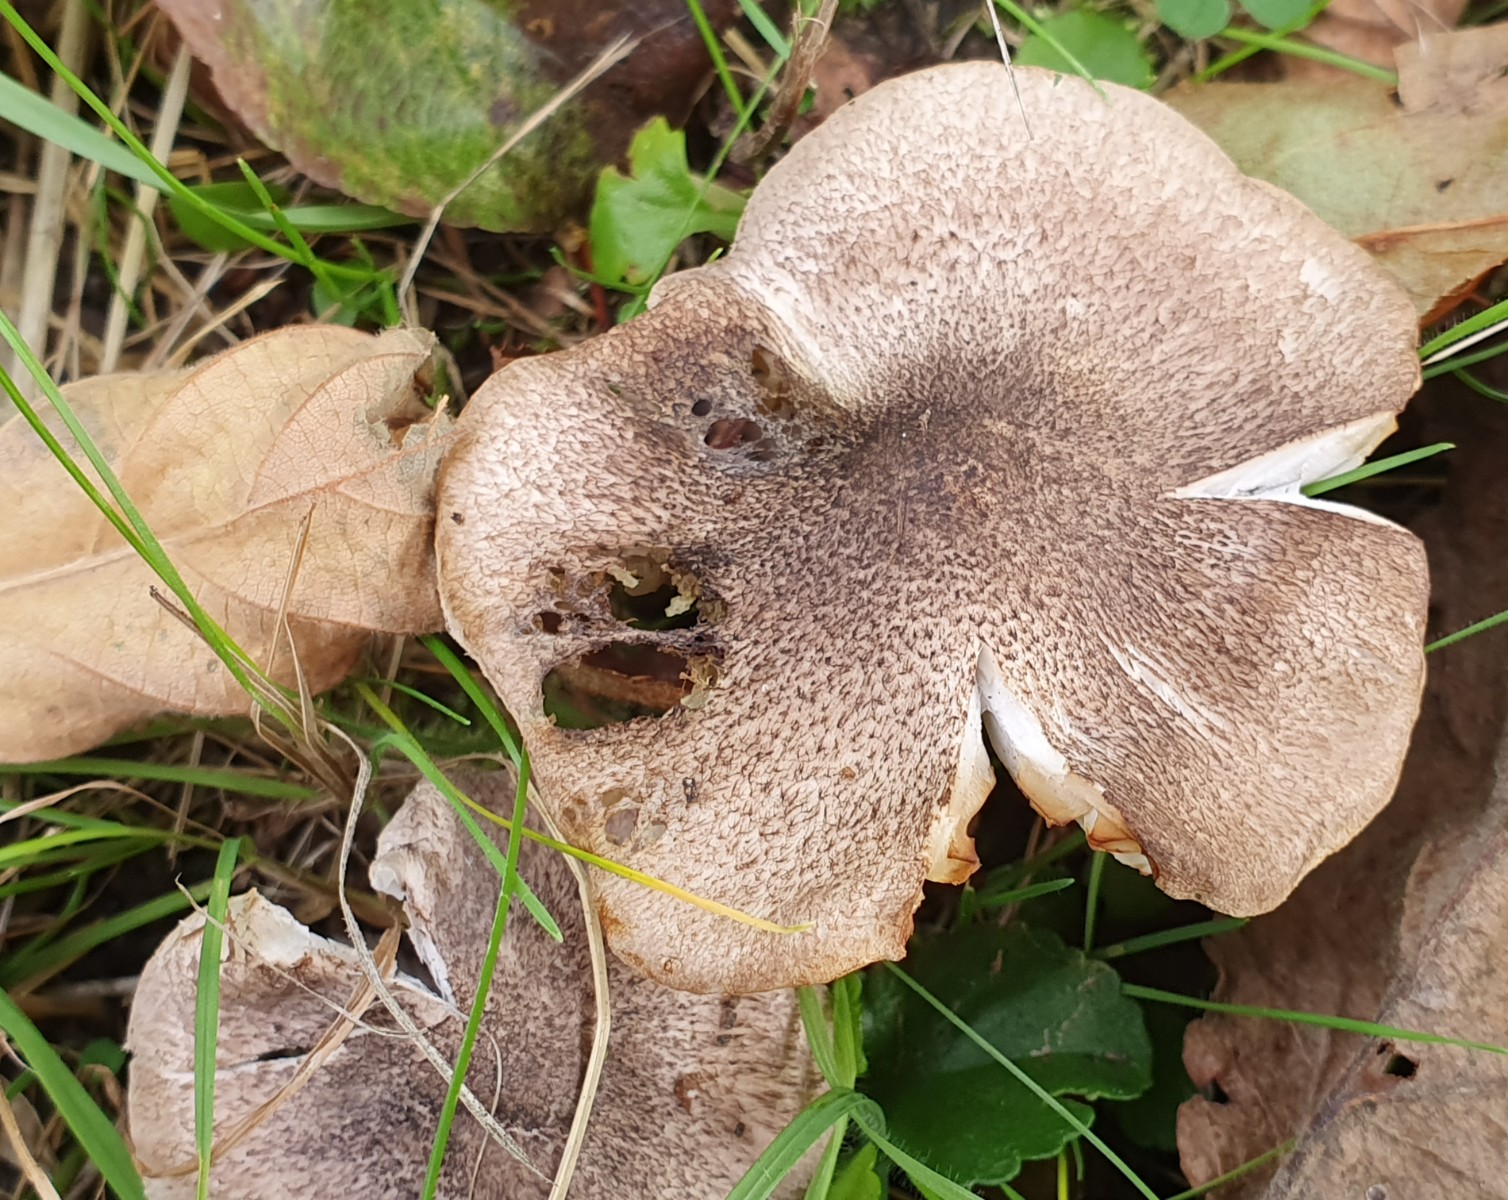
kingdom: Fungi
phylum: Basidiomycota
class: Agaricomycetes
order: Agaricales
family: Tricholomataceae
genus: Tricholoma
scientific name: Tricholoma argyraceum
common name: slør-ridderhat
